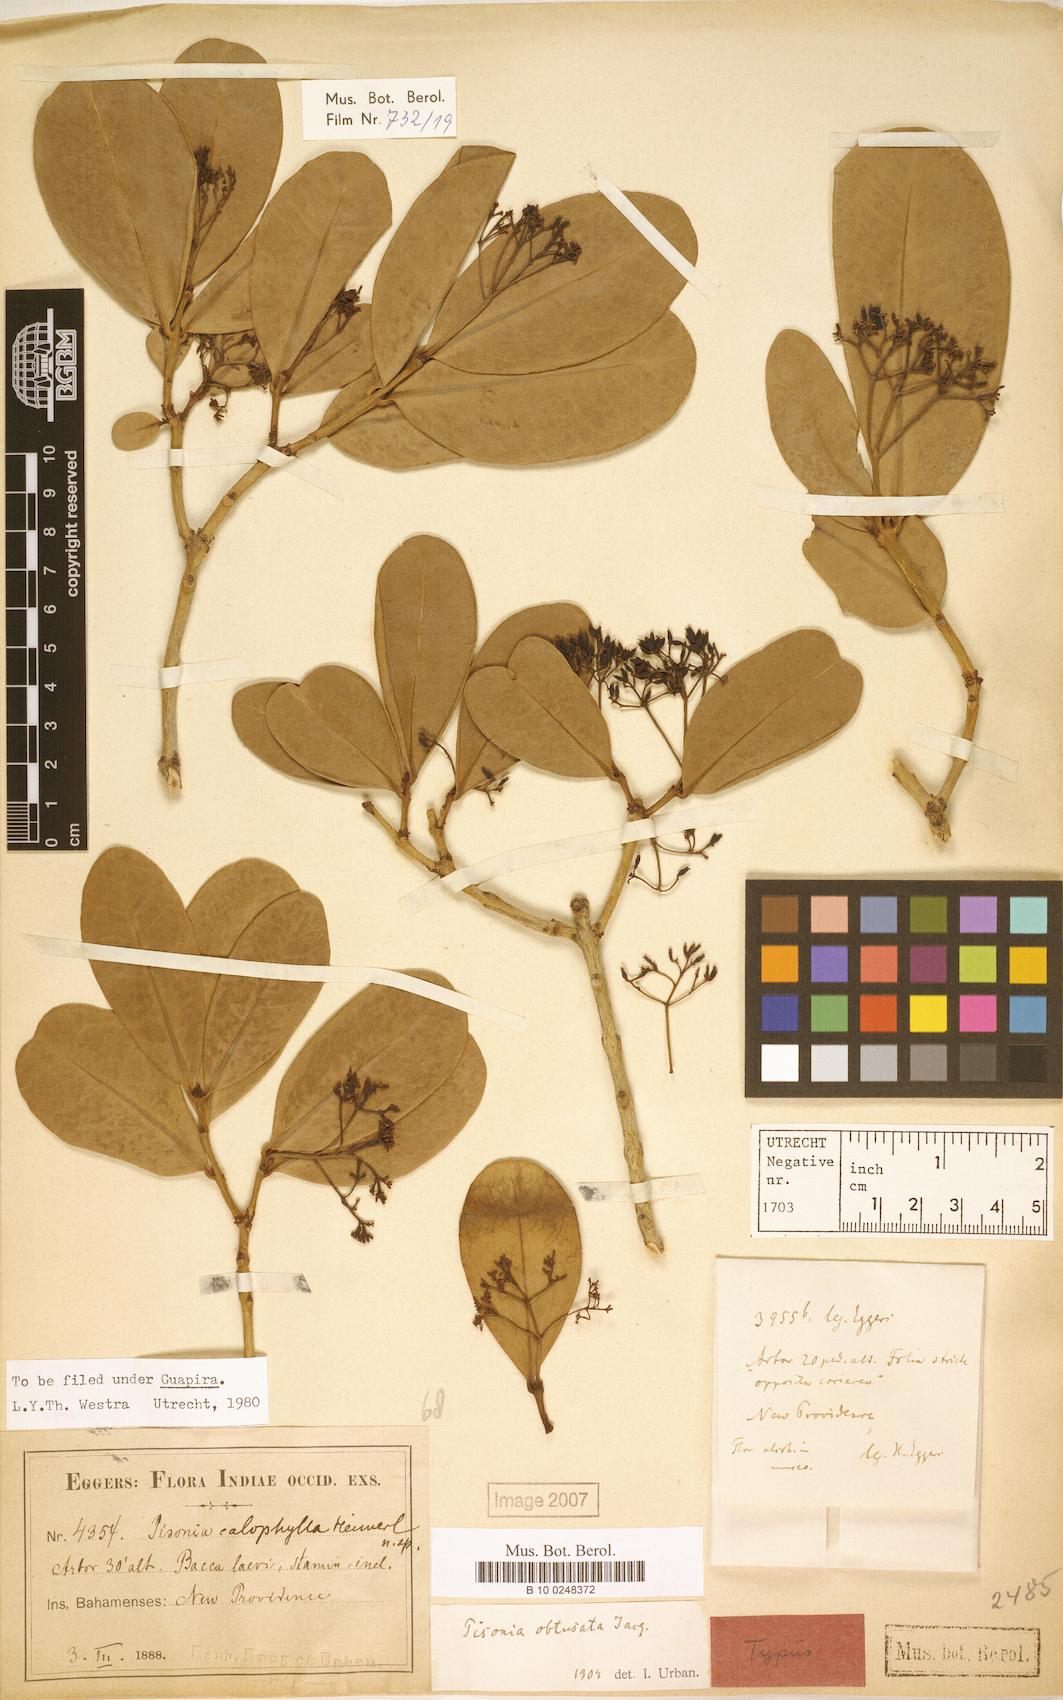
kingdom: Plantae
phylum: Tracheophyta
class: Magnoliopsida
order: Caryophyllales
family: Nyctaginaceae
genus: Guapira
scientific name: Guapira obtusata
